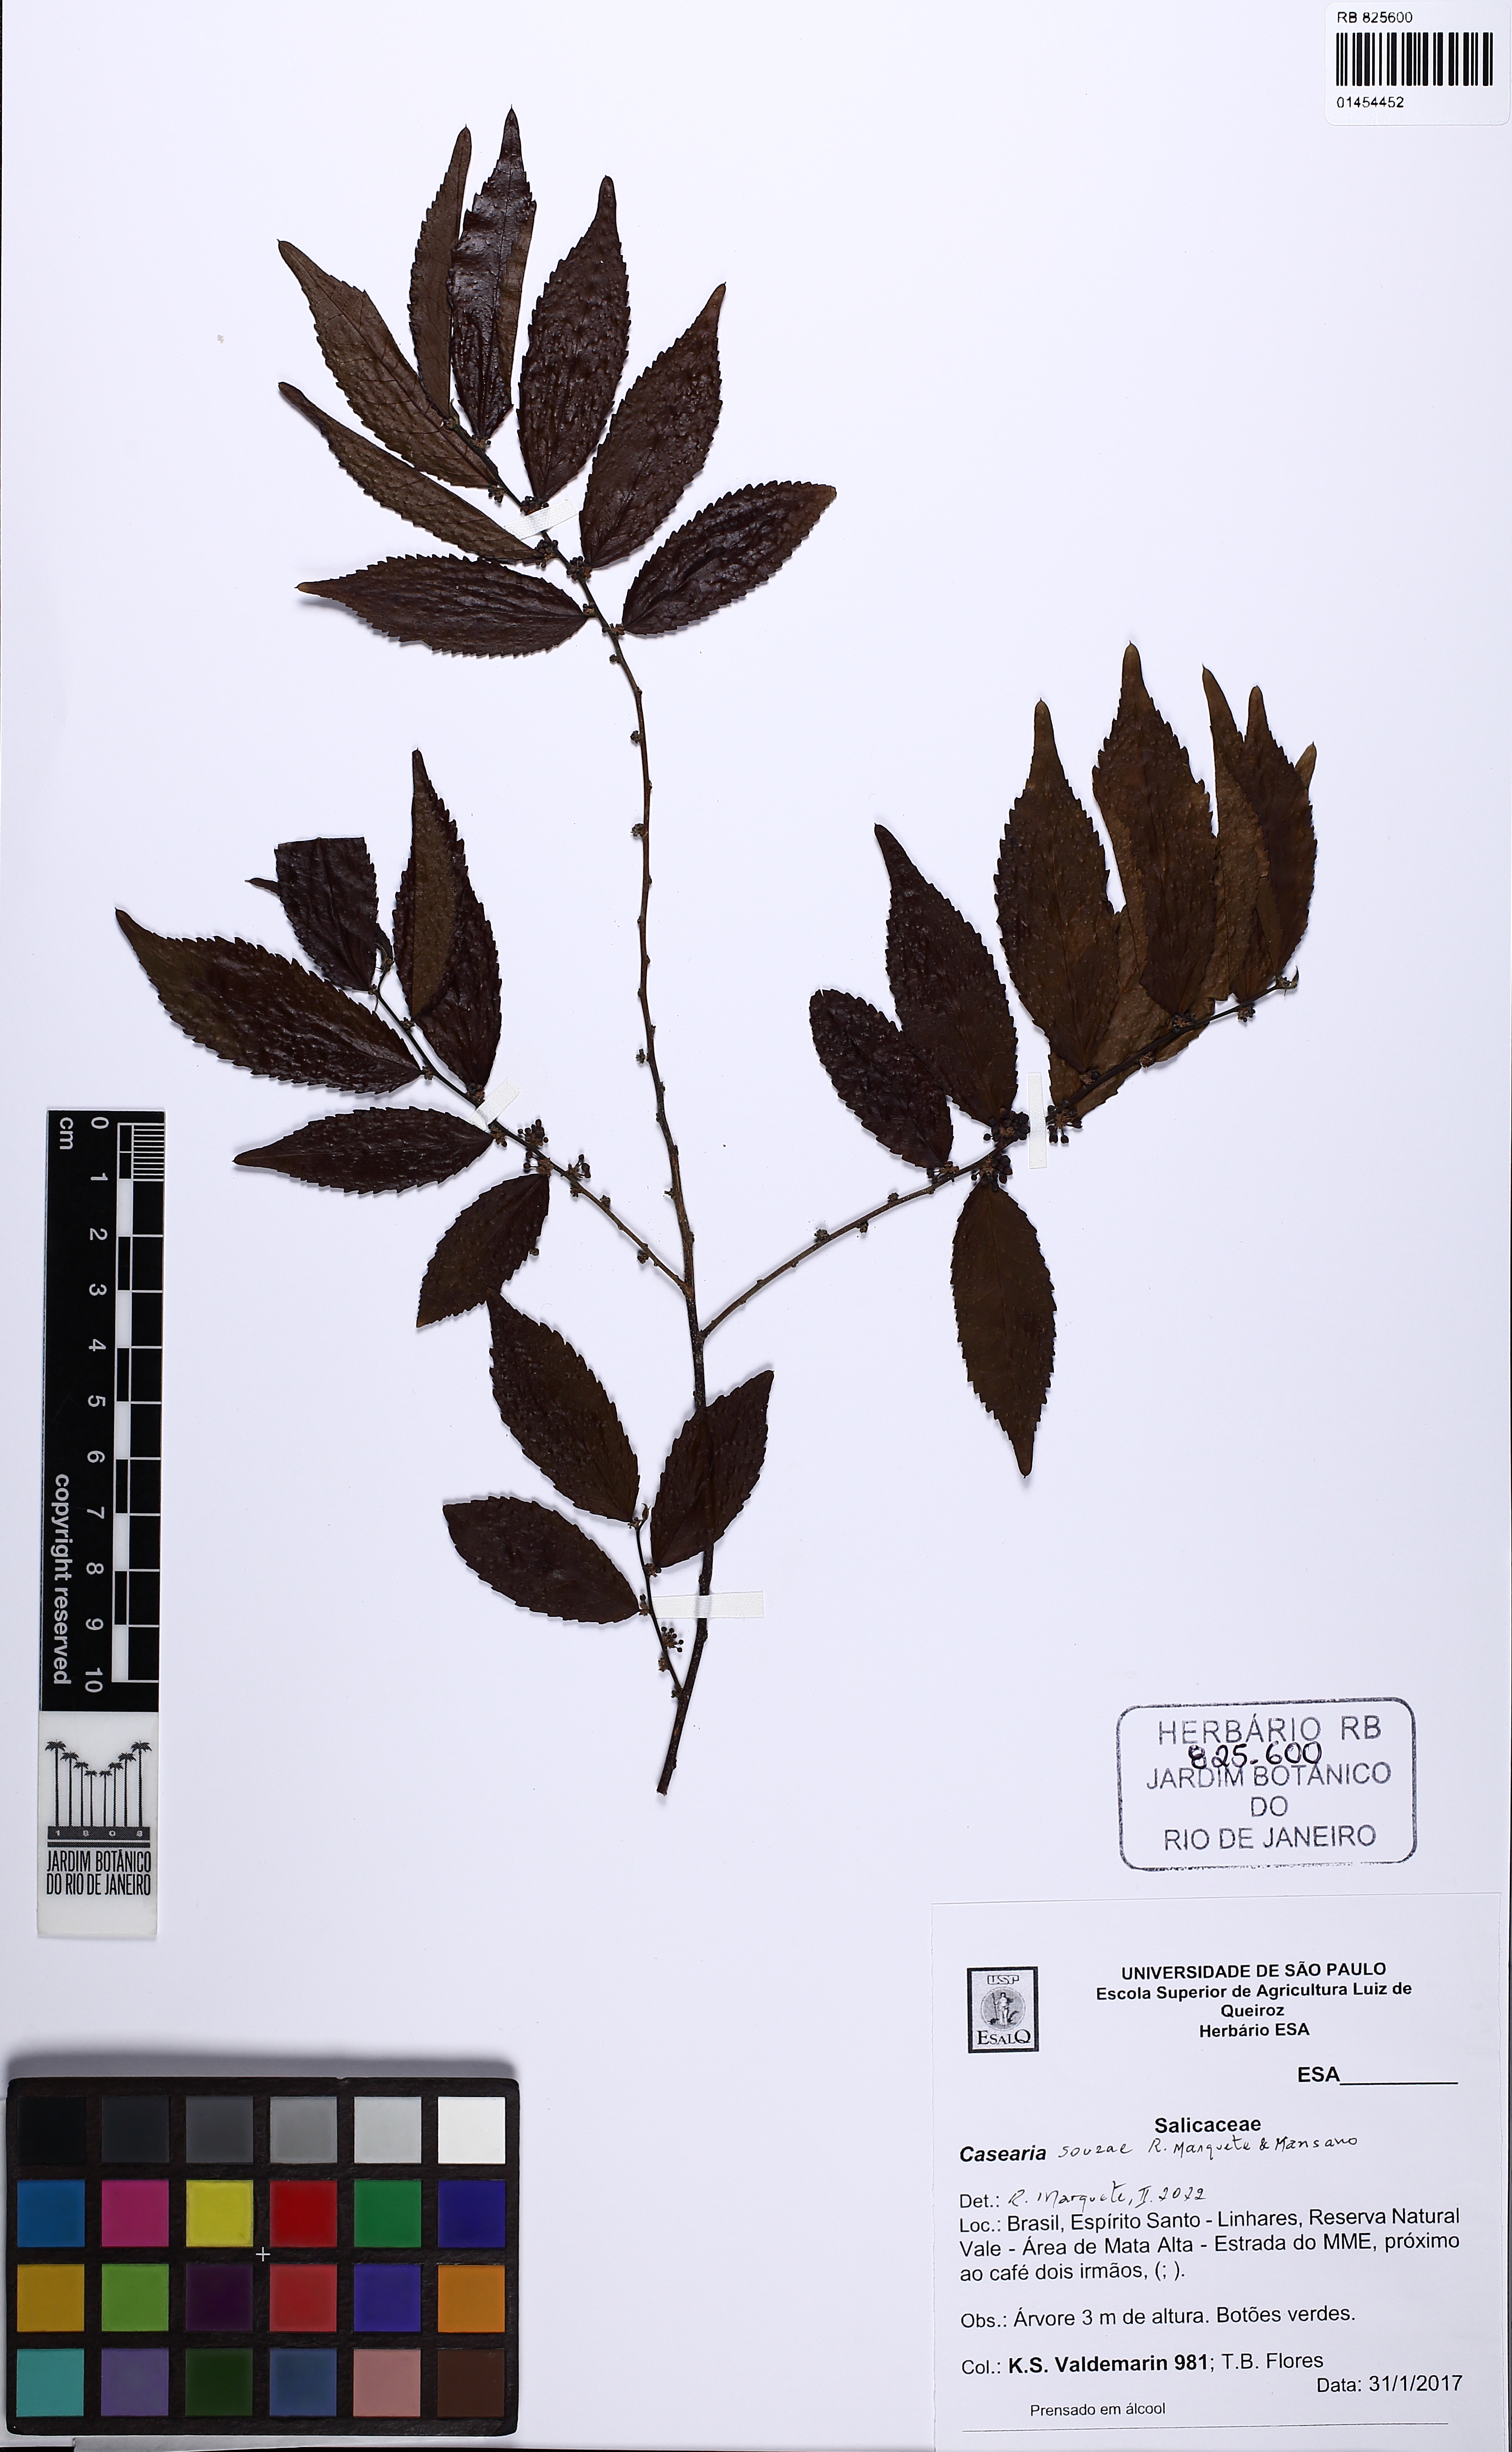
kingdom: Plantae
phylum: Tracheophyta
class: Magnoliopsida
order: Malpighiales
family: Salicaceae
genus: Casearia
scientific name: Casearia souzae
